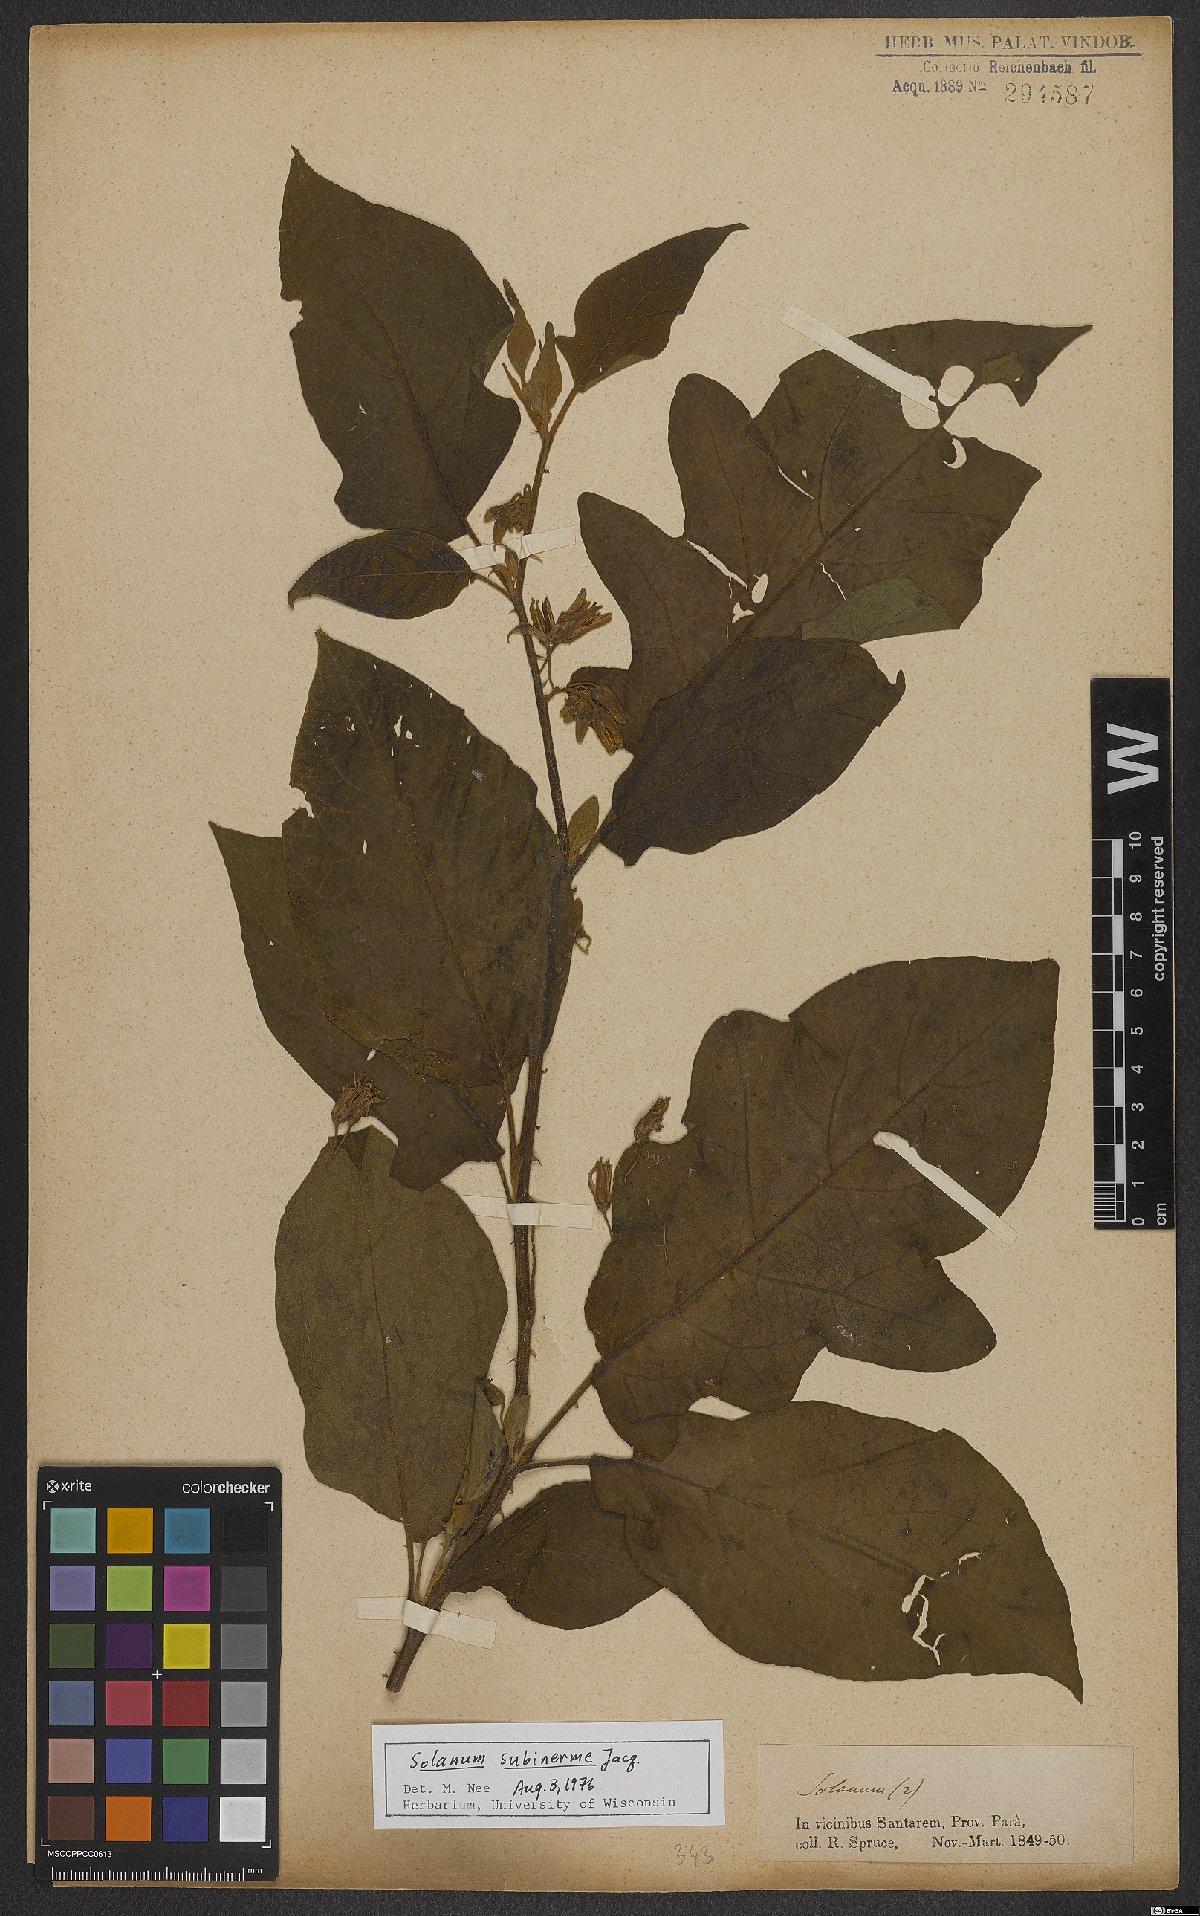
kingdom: Plantae
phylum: Tracheophyta
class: Magnoliopsida
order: Solanales
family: Solanaceae
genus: Solanum
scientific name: Solanum subinerme
